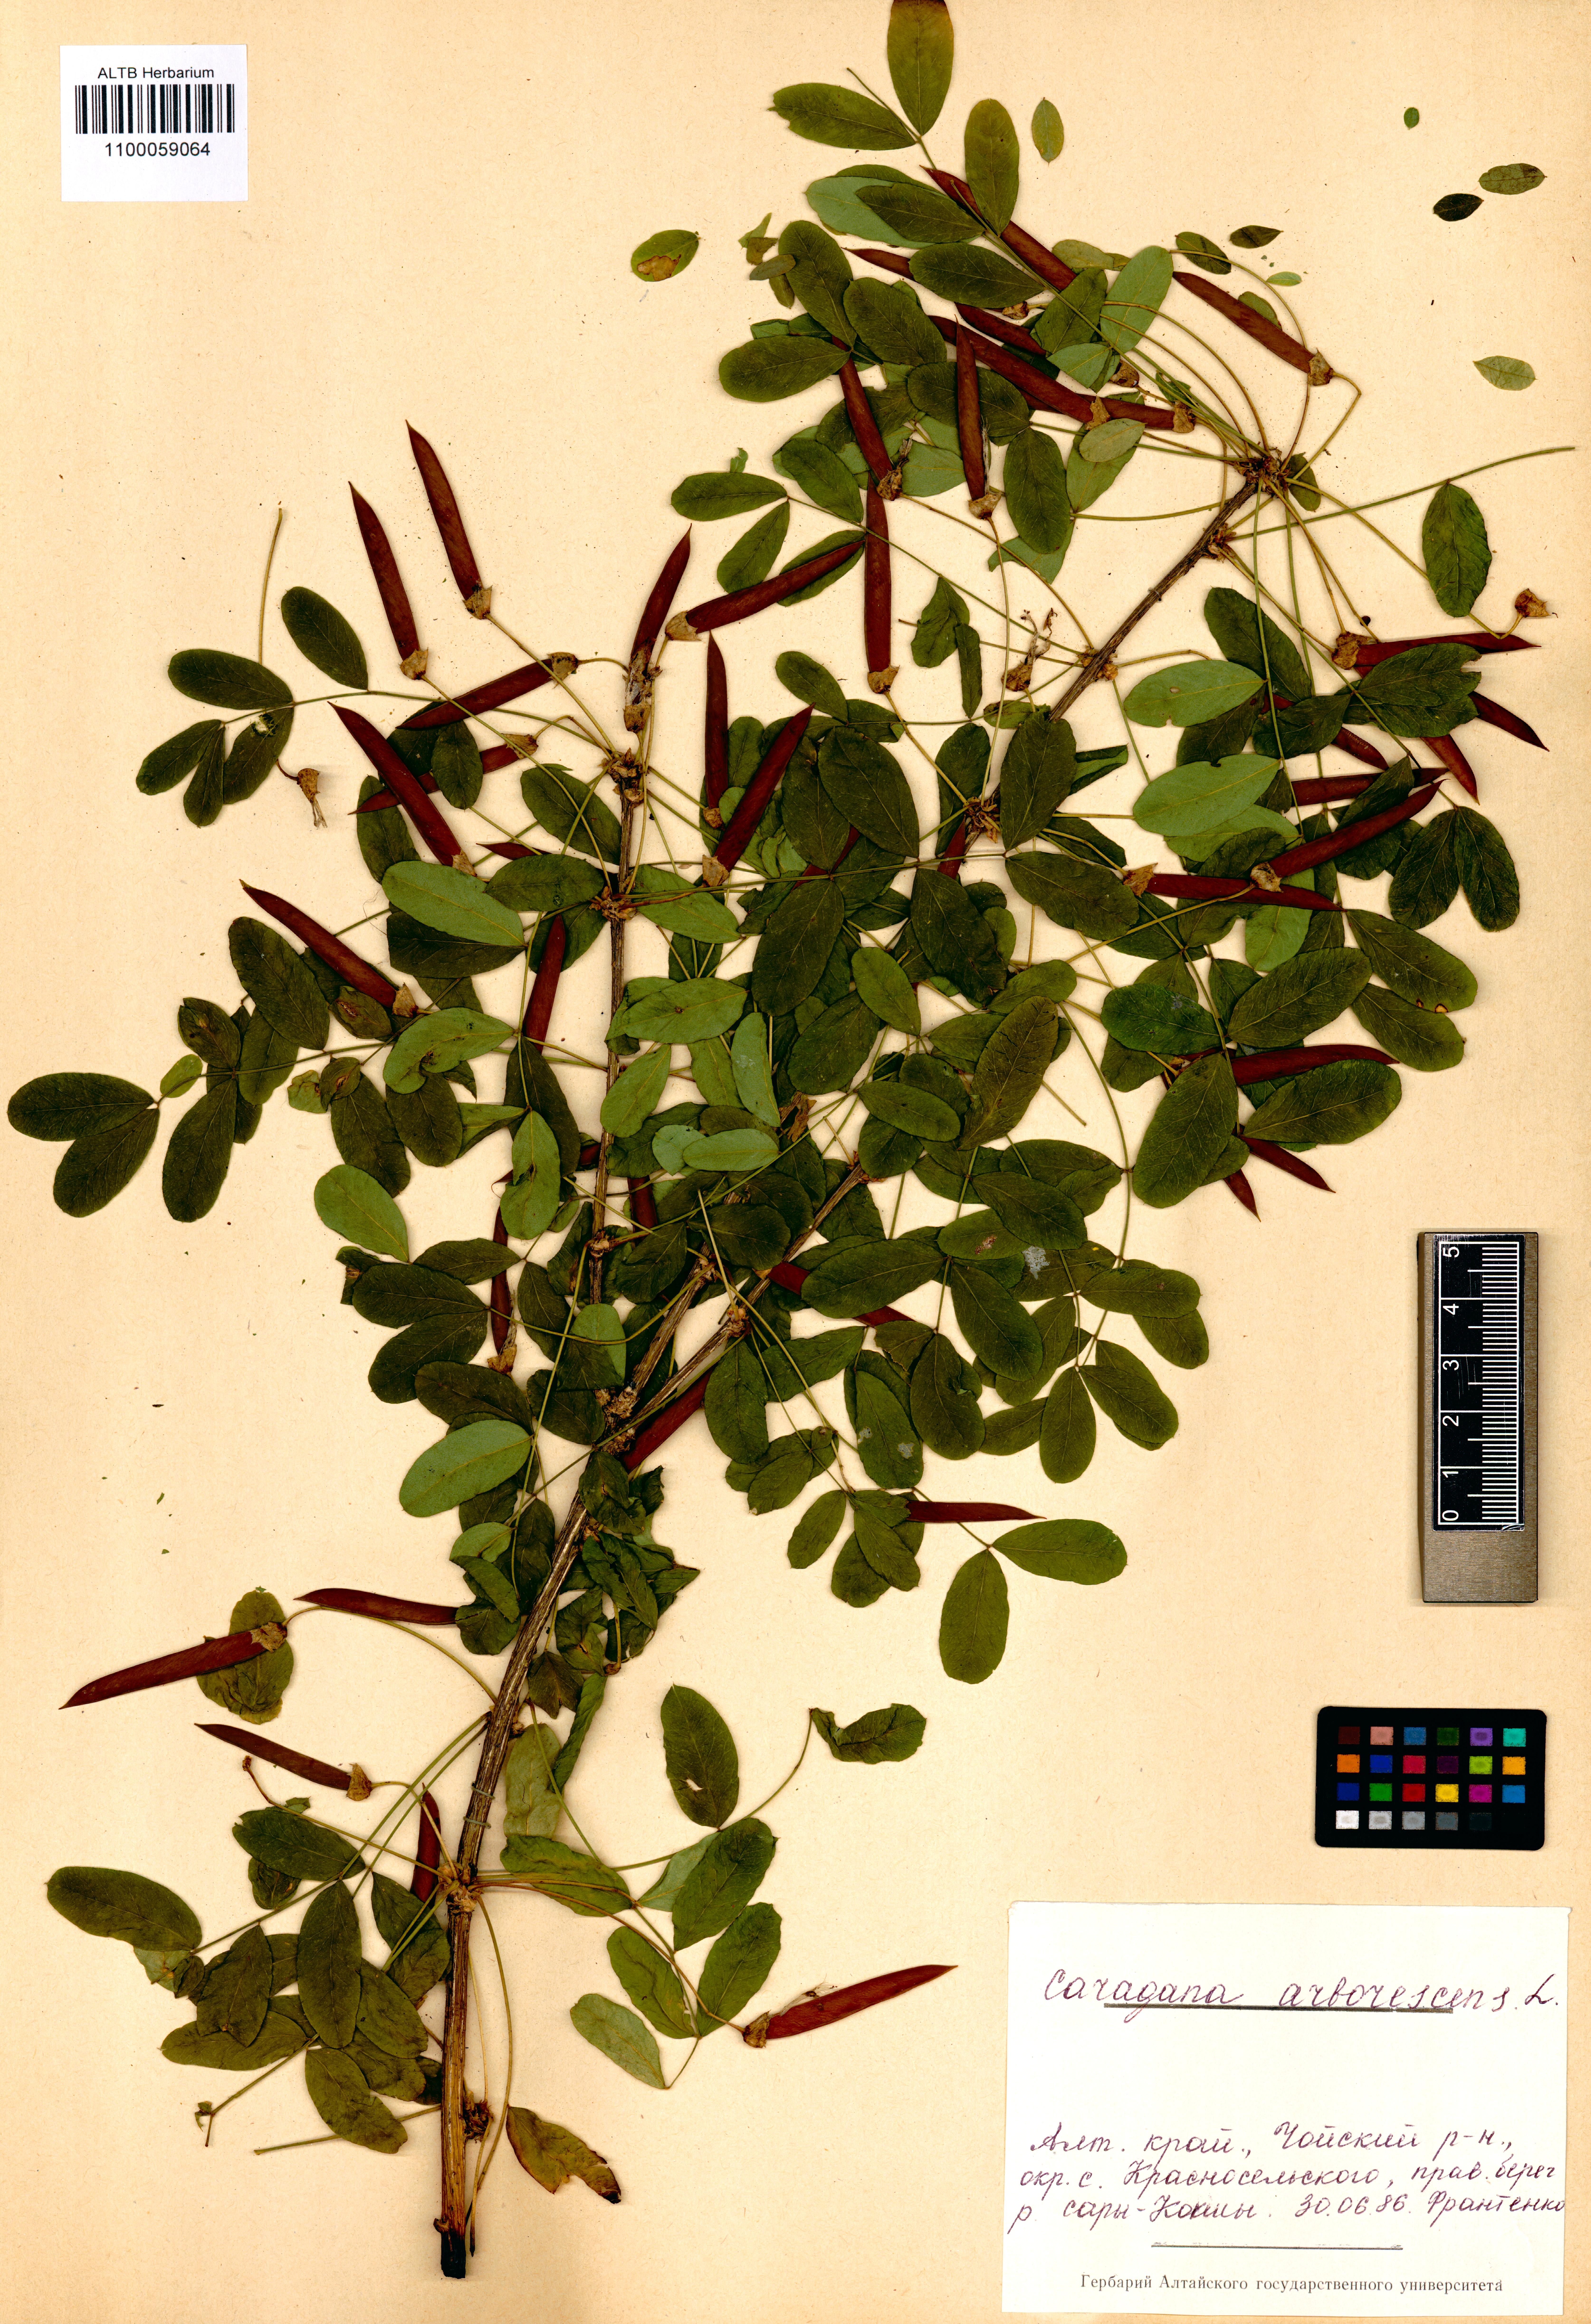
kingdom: Plantae
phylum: Tracheophyta
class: Magnoliopsida
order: Fabales
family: Fabaceae
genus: Caragana
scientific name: Caragana arborescens
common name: Siberian peashrub
